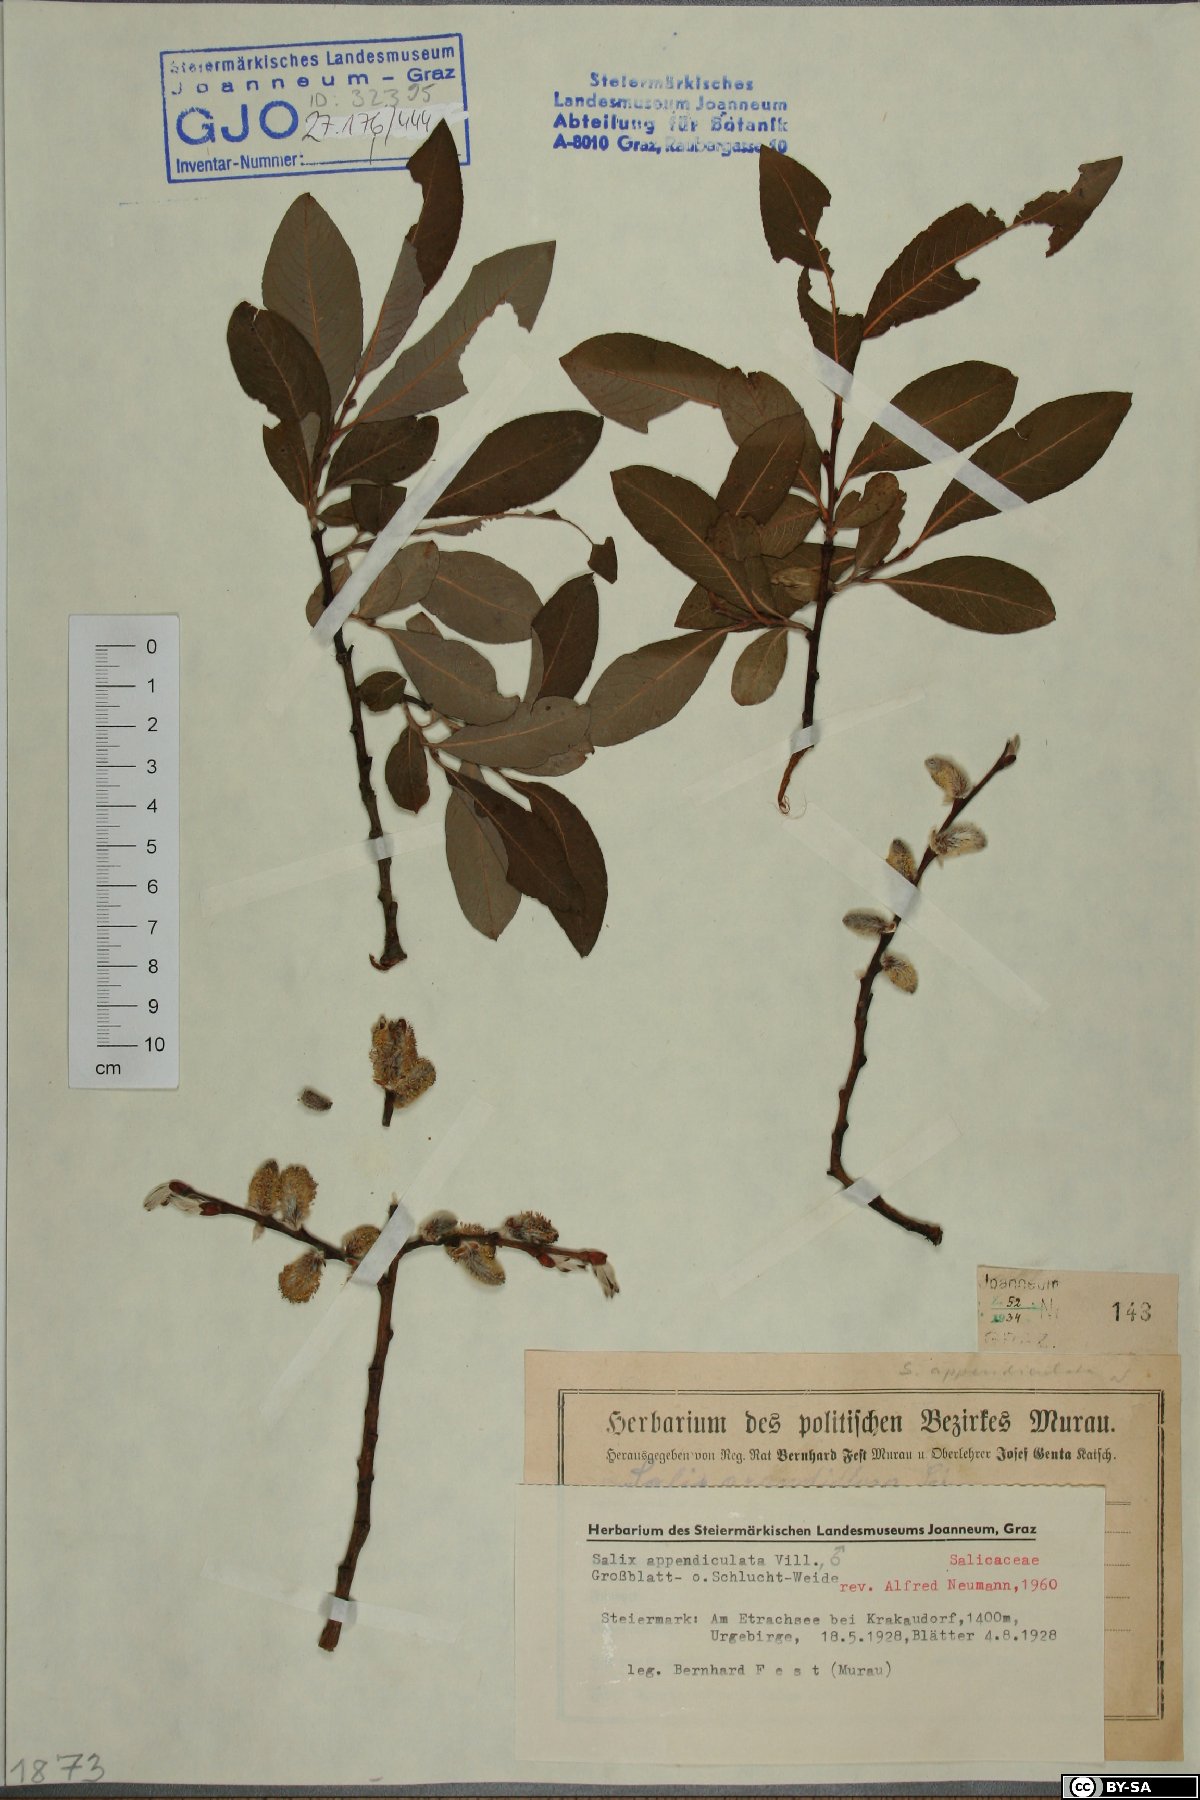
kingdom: Plantae
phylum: Tracheophyta
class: Magnoliopsida
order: Malpighiales
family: Salicaceae
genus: Salix
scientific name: Salix appendiculata
